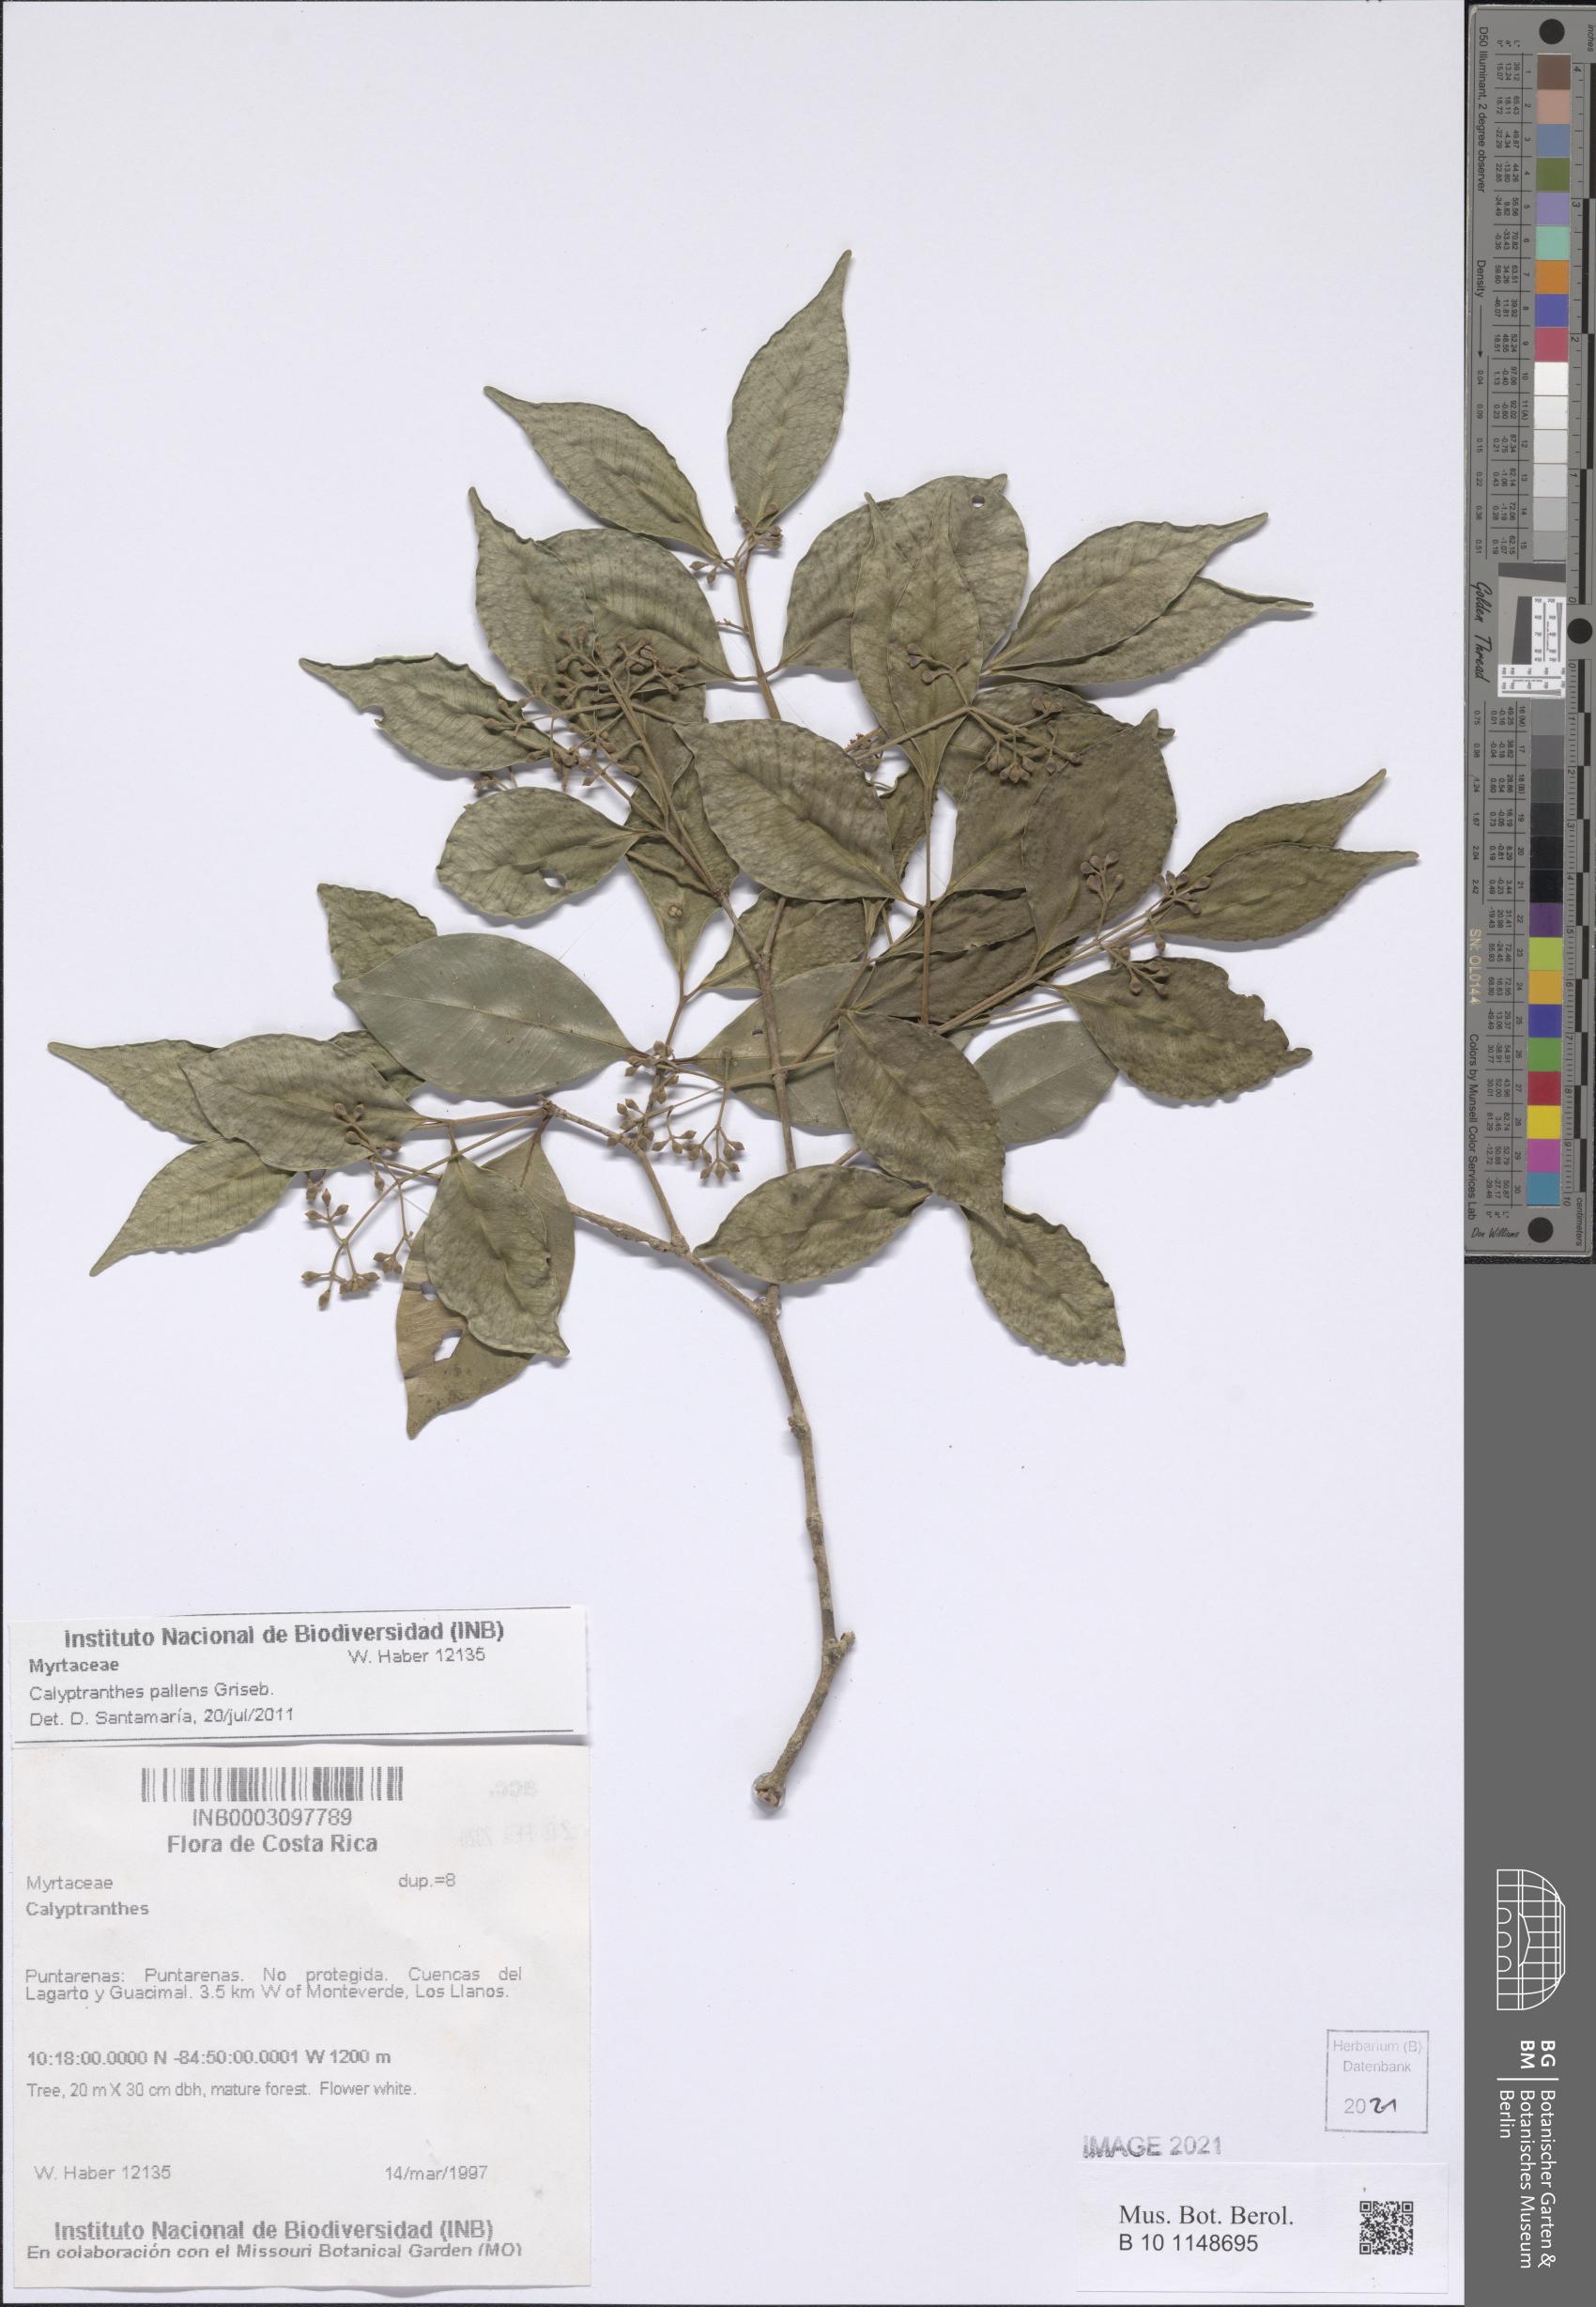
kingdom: Plantae
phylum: Tracheophyta
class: Magnoliopsida
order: Myrtales
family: Myrtaceae
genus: Myrcia
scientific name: Myrcia neopallens
